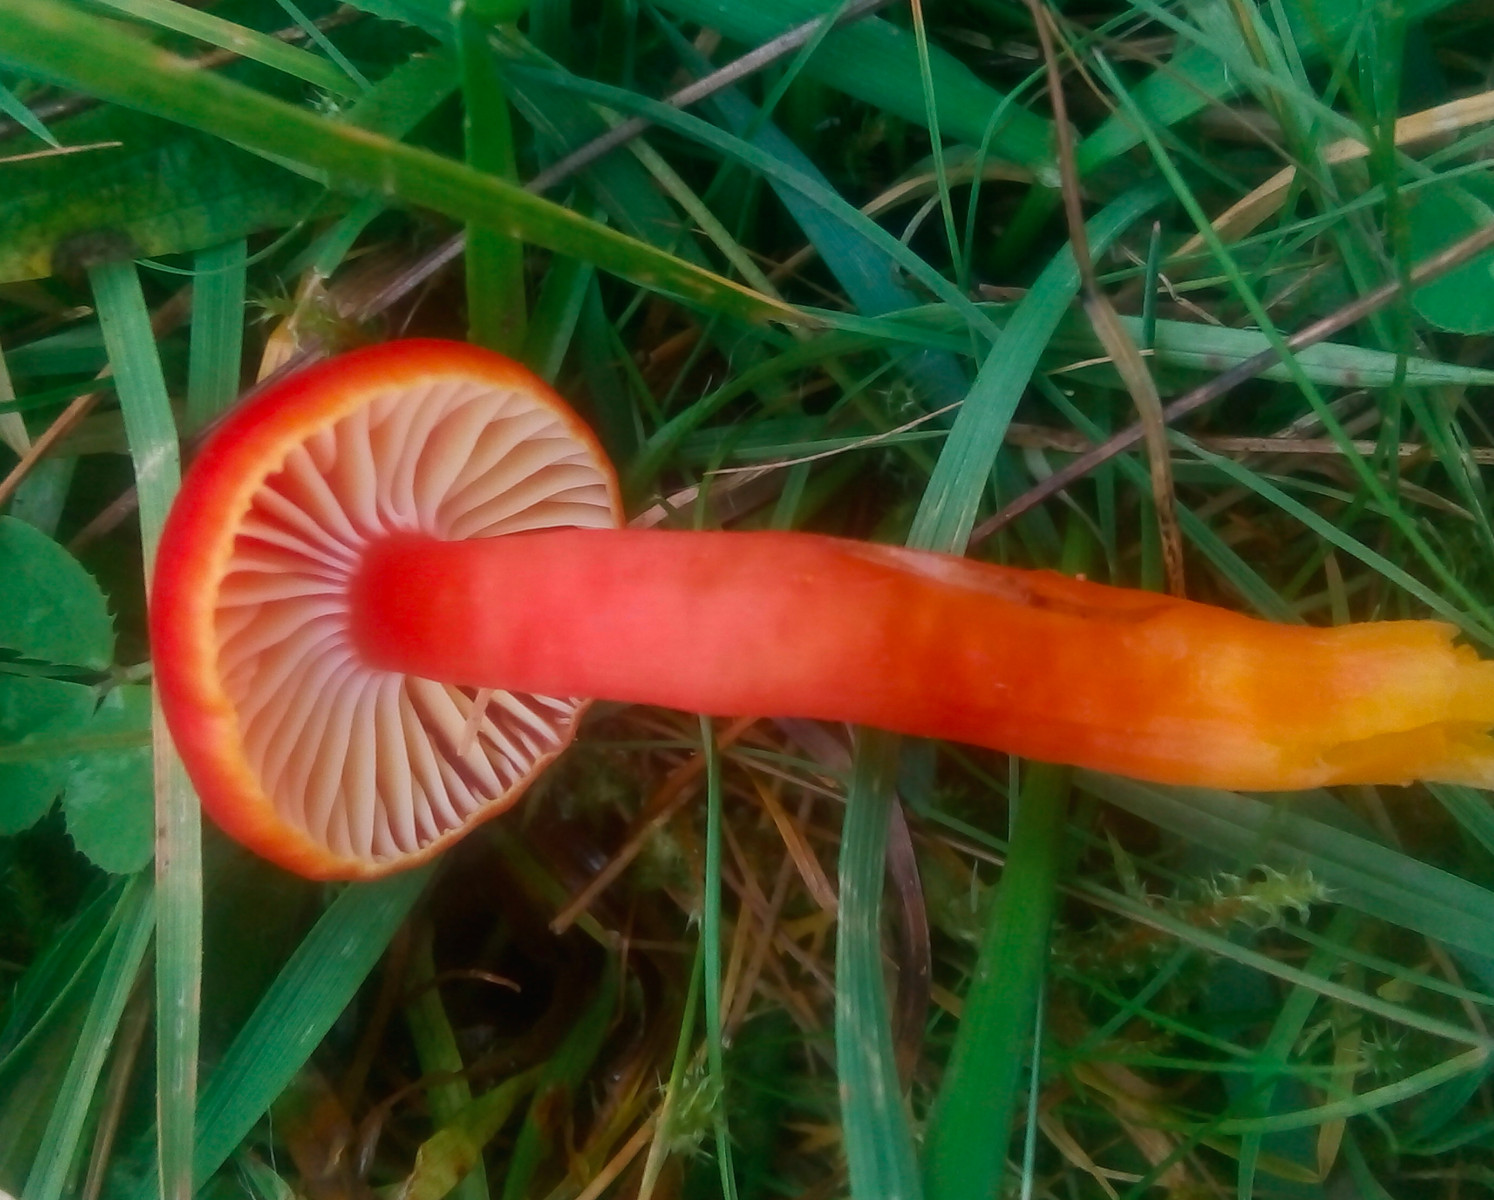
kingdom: Fungi
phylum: Basidiomycota
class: Agaricomycetes
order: Agaricales
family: Hygrophoraceae
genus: Hygrocybe
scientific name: Hygrocybe coccinea
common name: cinnober-vokshat
